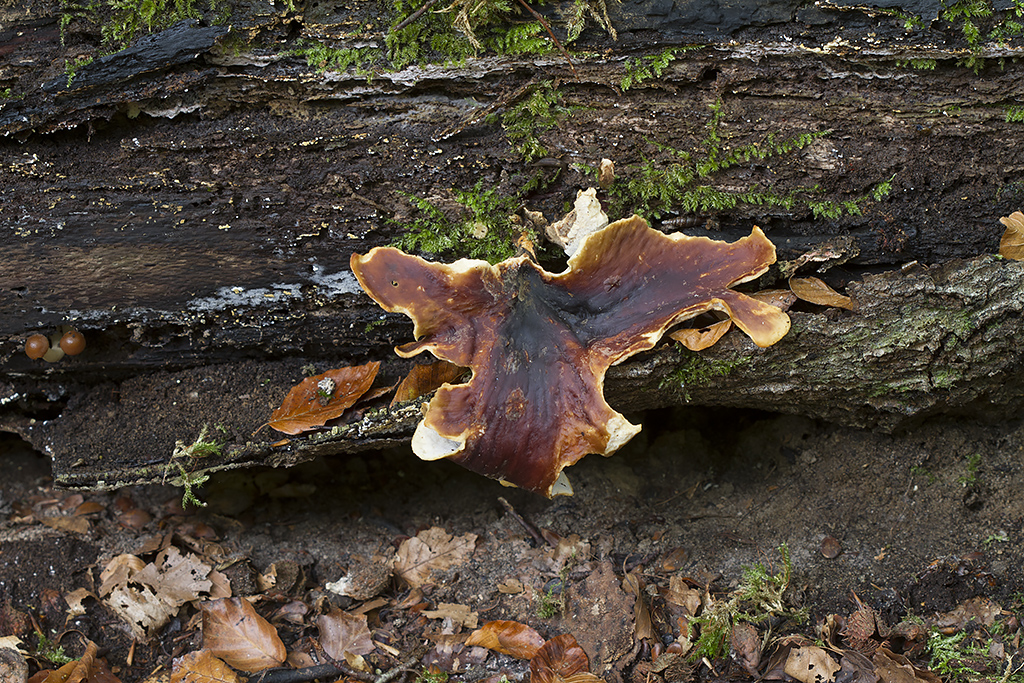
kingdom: Fungi
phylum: Basidiomycota
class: Agaricomycetes
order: Polyporales
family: Polyporaceae
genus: Picipes
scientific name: Picipes badius
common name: kastaniebrun stilkporesvamp
